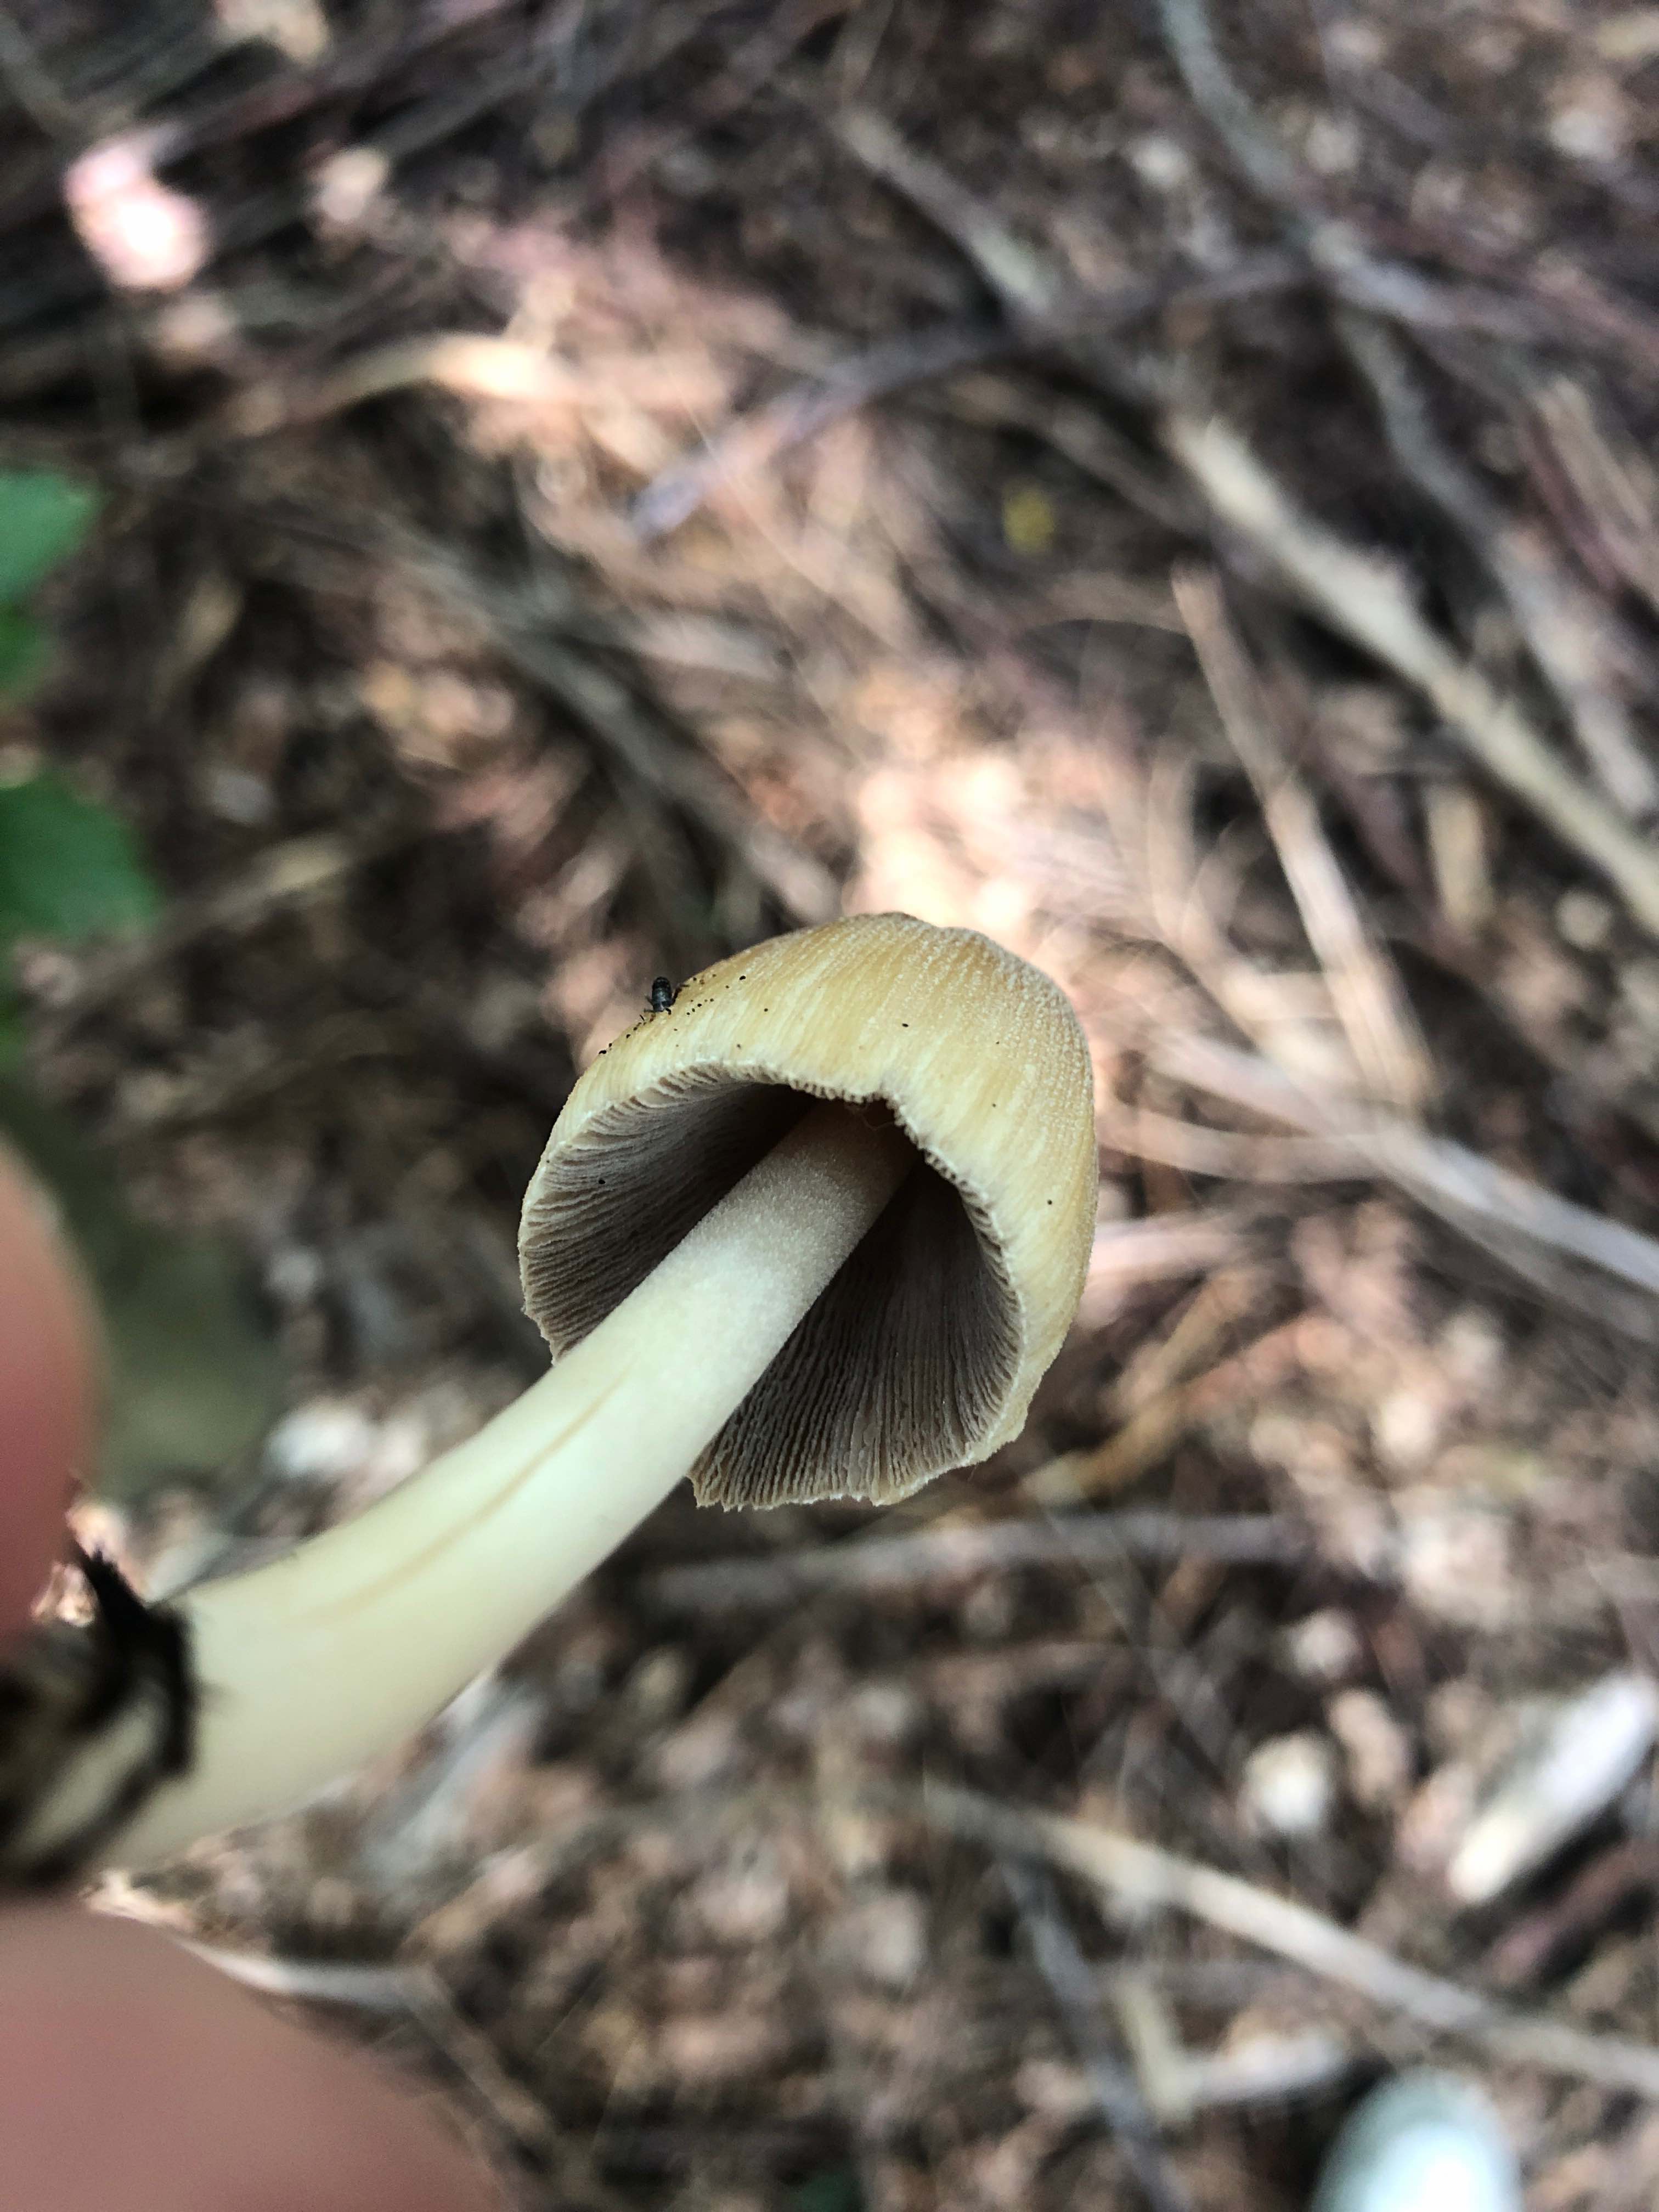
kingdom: Fungi
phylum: Basidiomycota
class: Agaricomycetes
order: Agaricales
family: Psathyrellaceae
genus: Coprinellus
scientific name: Coprinellus
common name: blækhat
